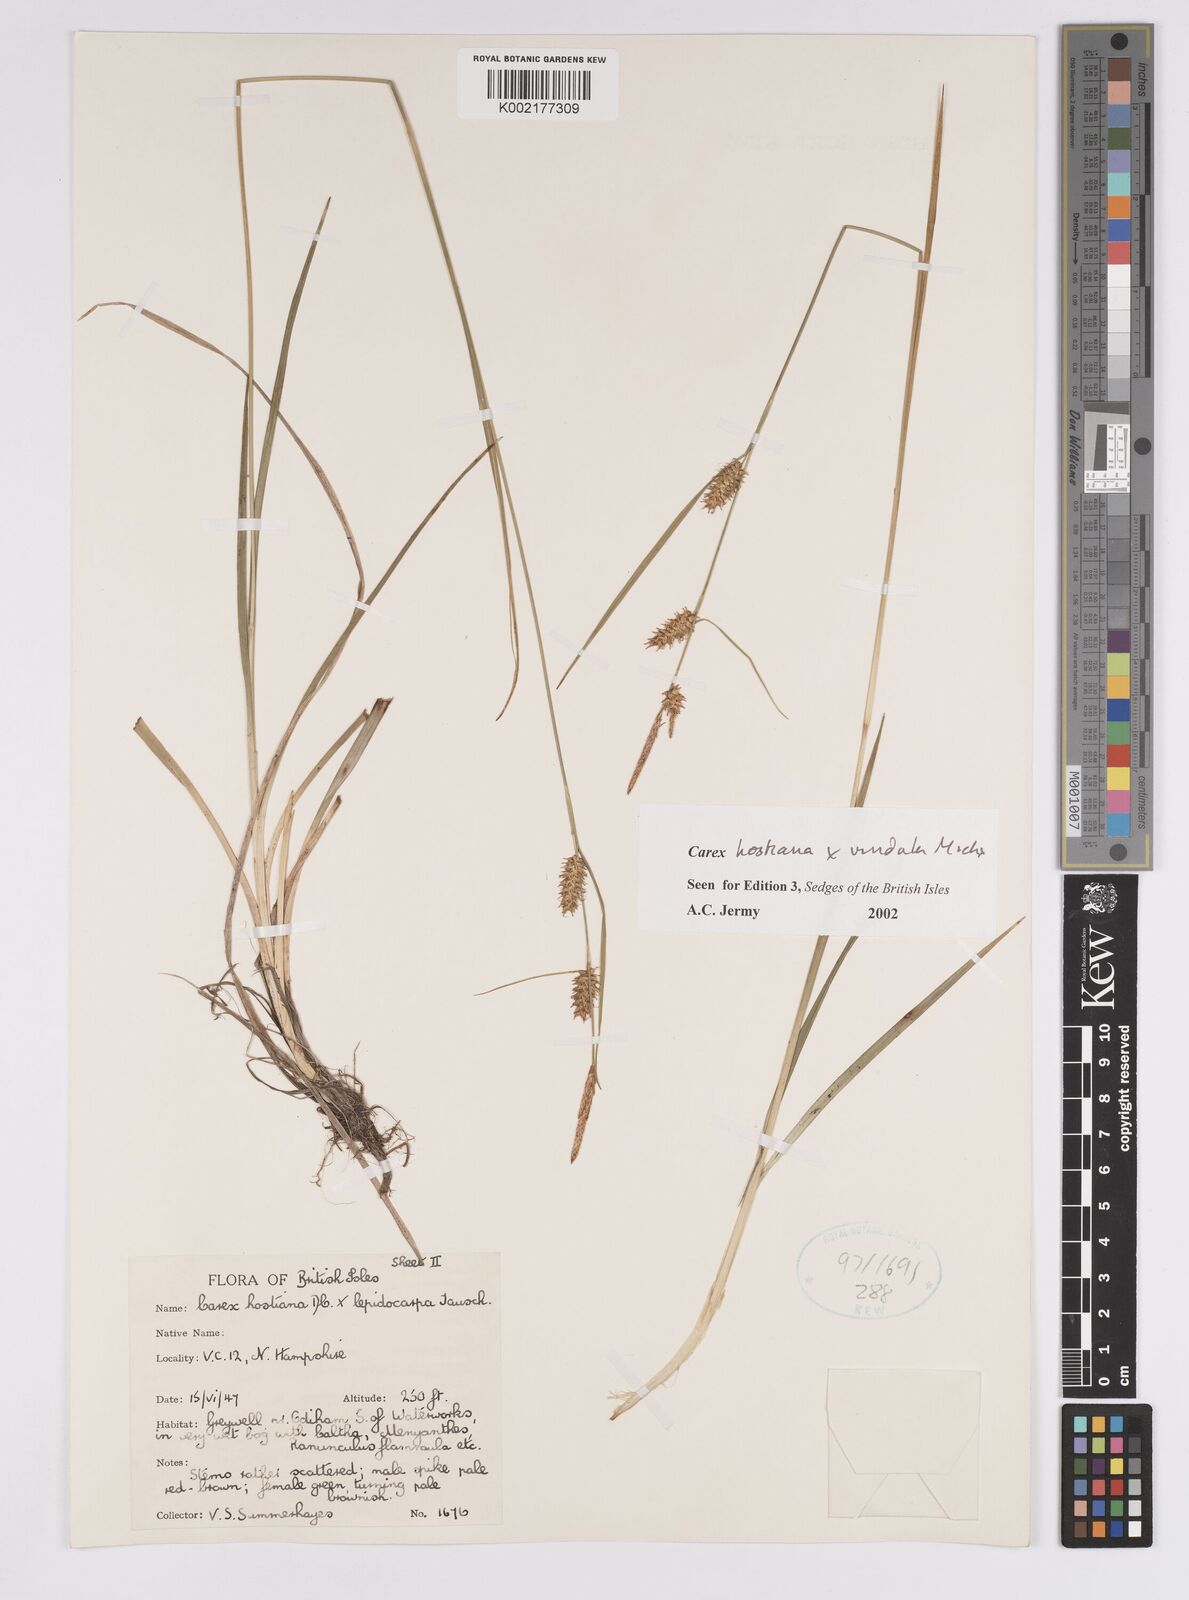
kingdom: Plantae
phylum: Tracheophyta
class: Liliopsida
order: Poales
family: Cyperaceae
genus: Carex
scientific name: Carex hostiana
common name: Tawny sedge
